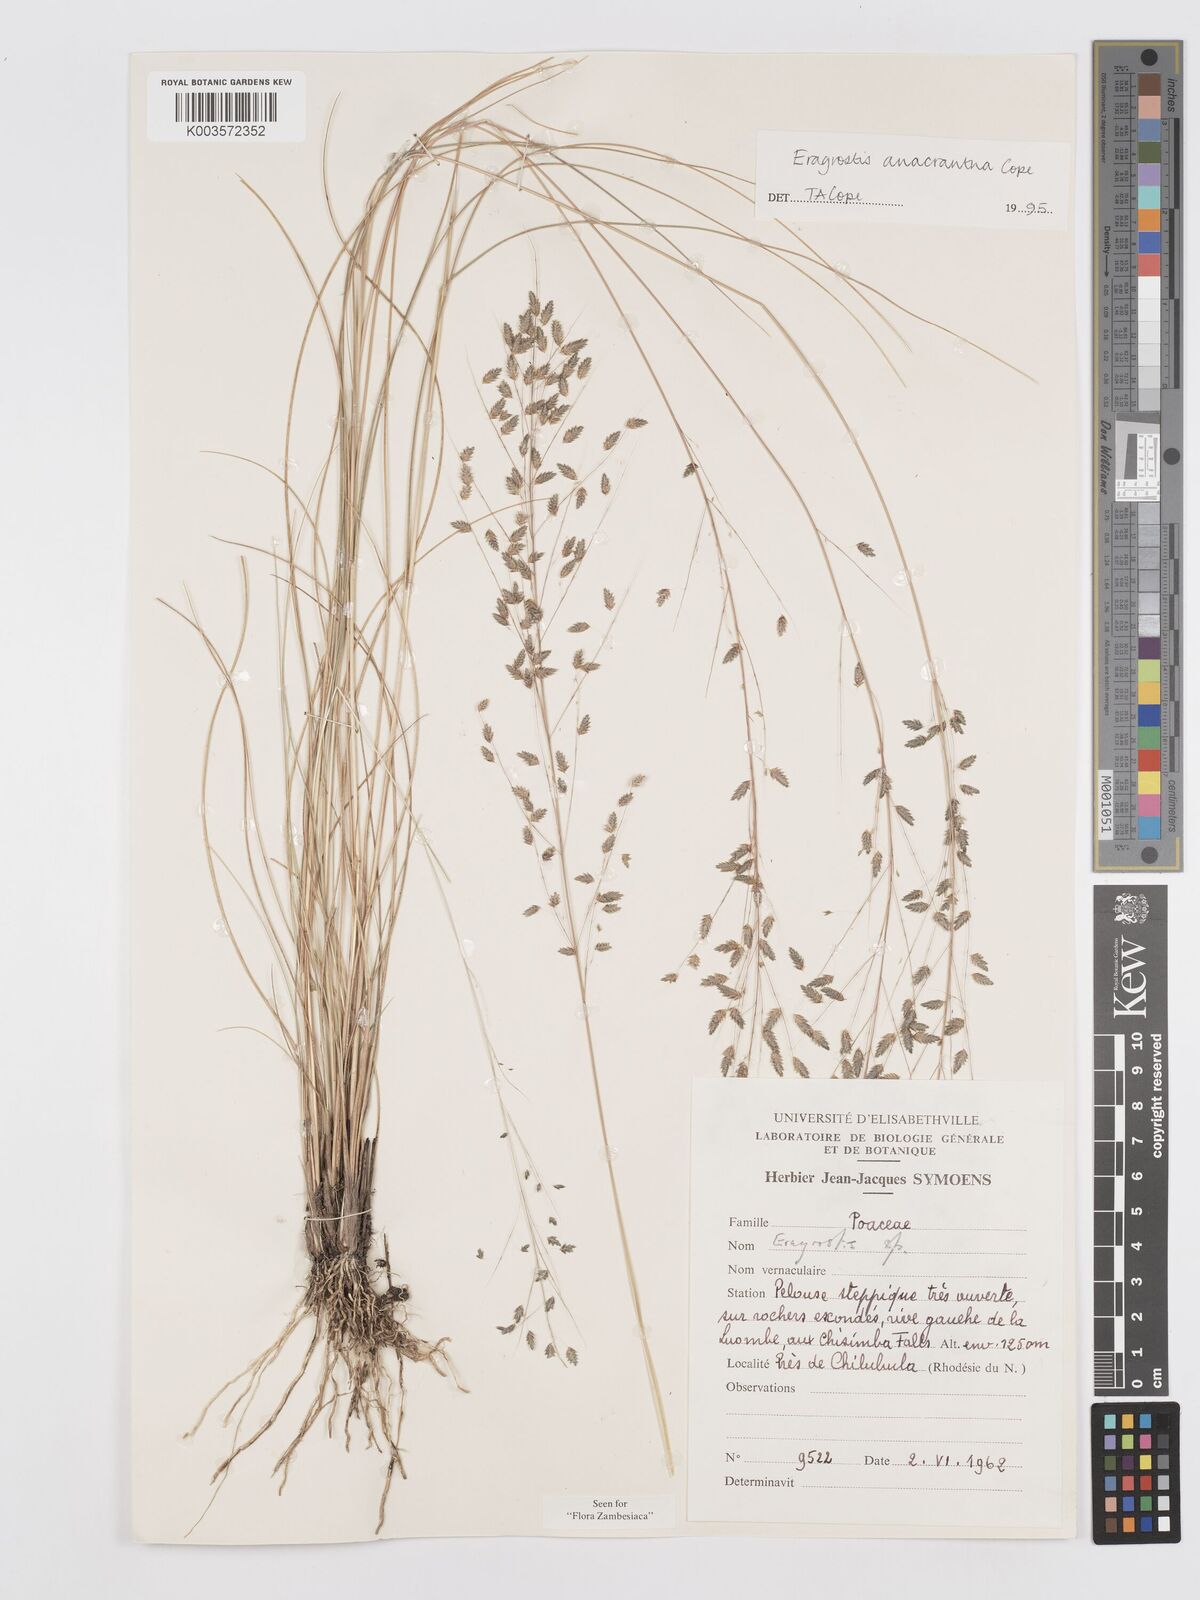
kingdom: Plantae
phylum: Tracheophyta
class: Liliopsida
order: Poales
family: Poaceae
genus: Eragrostis
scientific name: Eragrostis anacrantha
